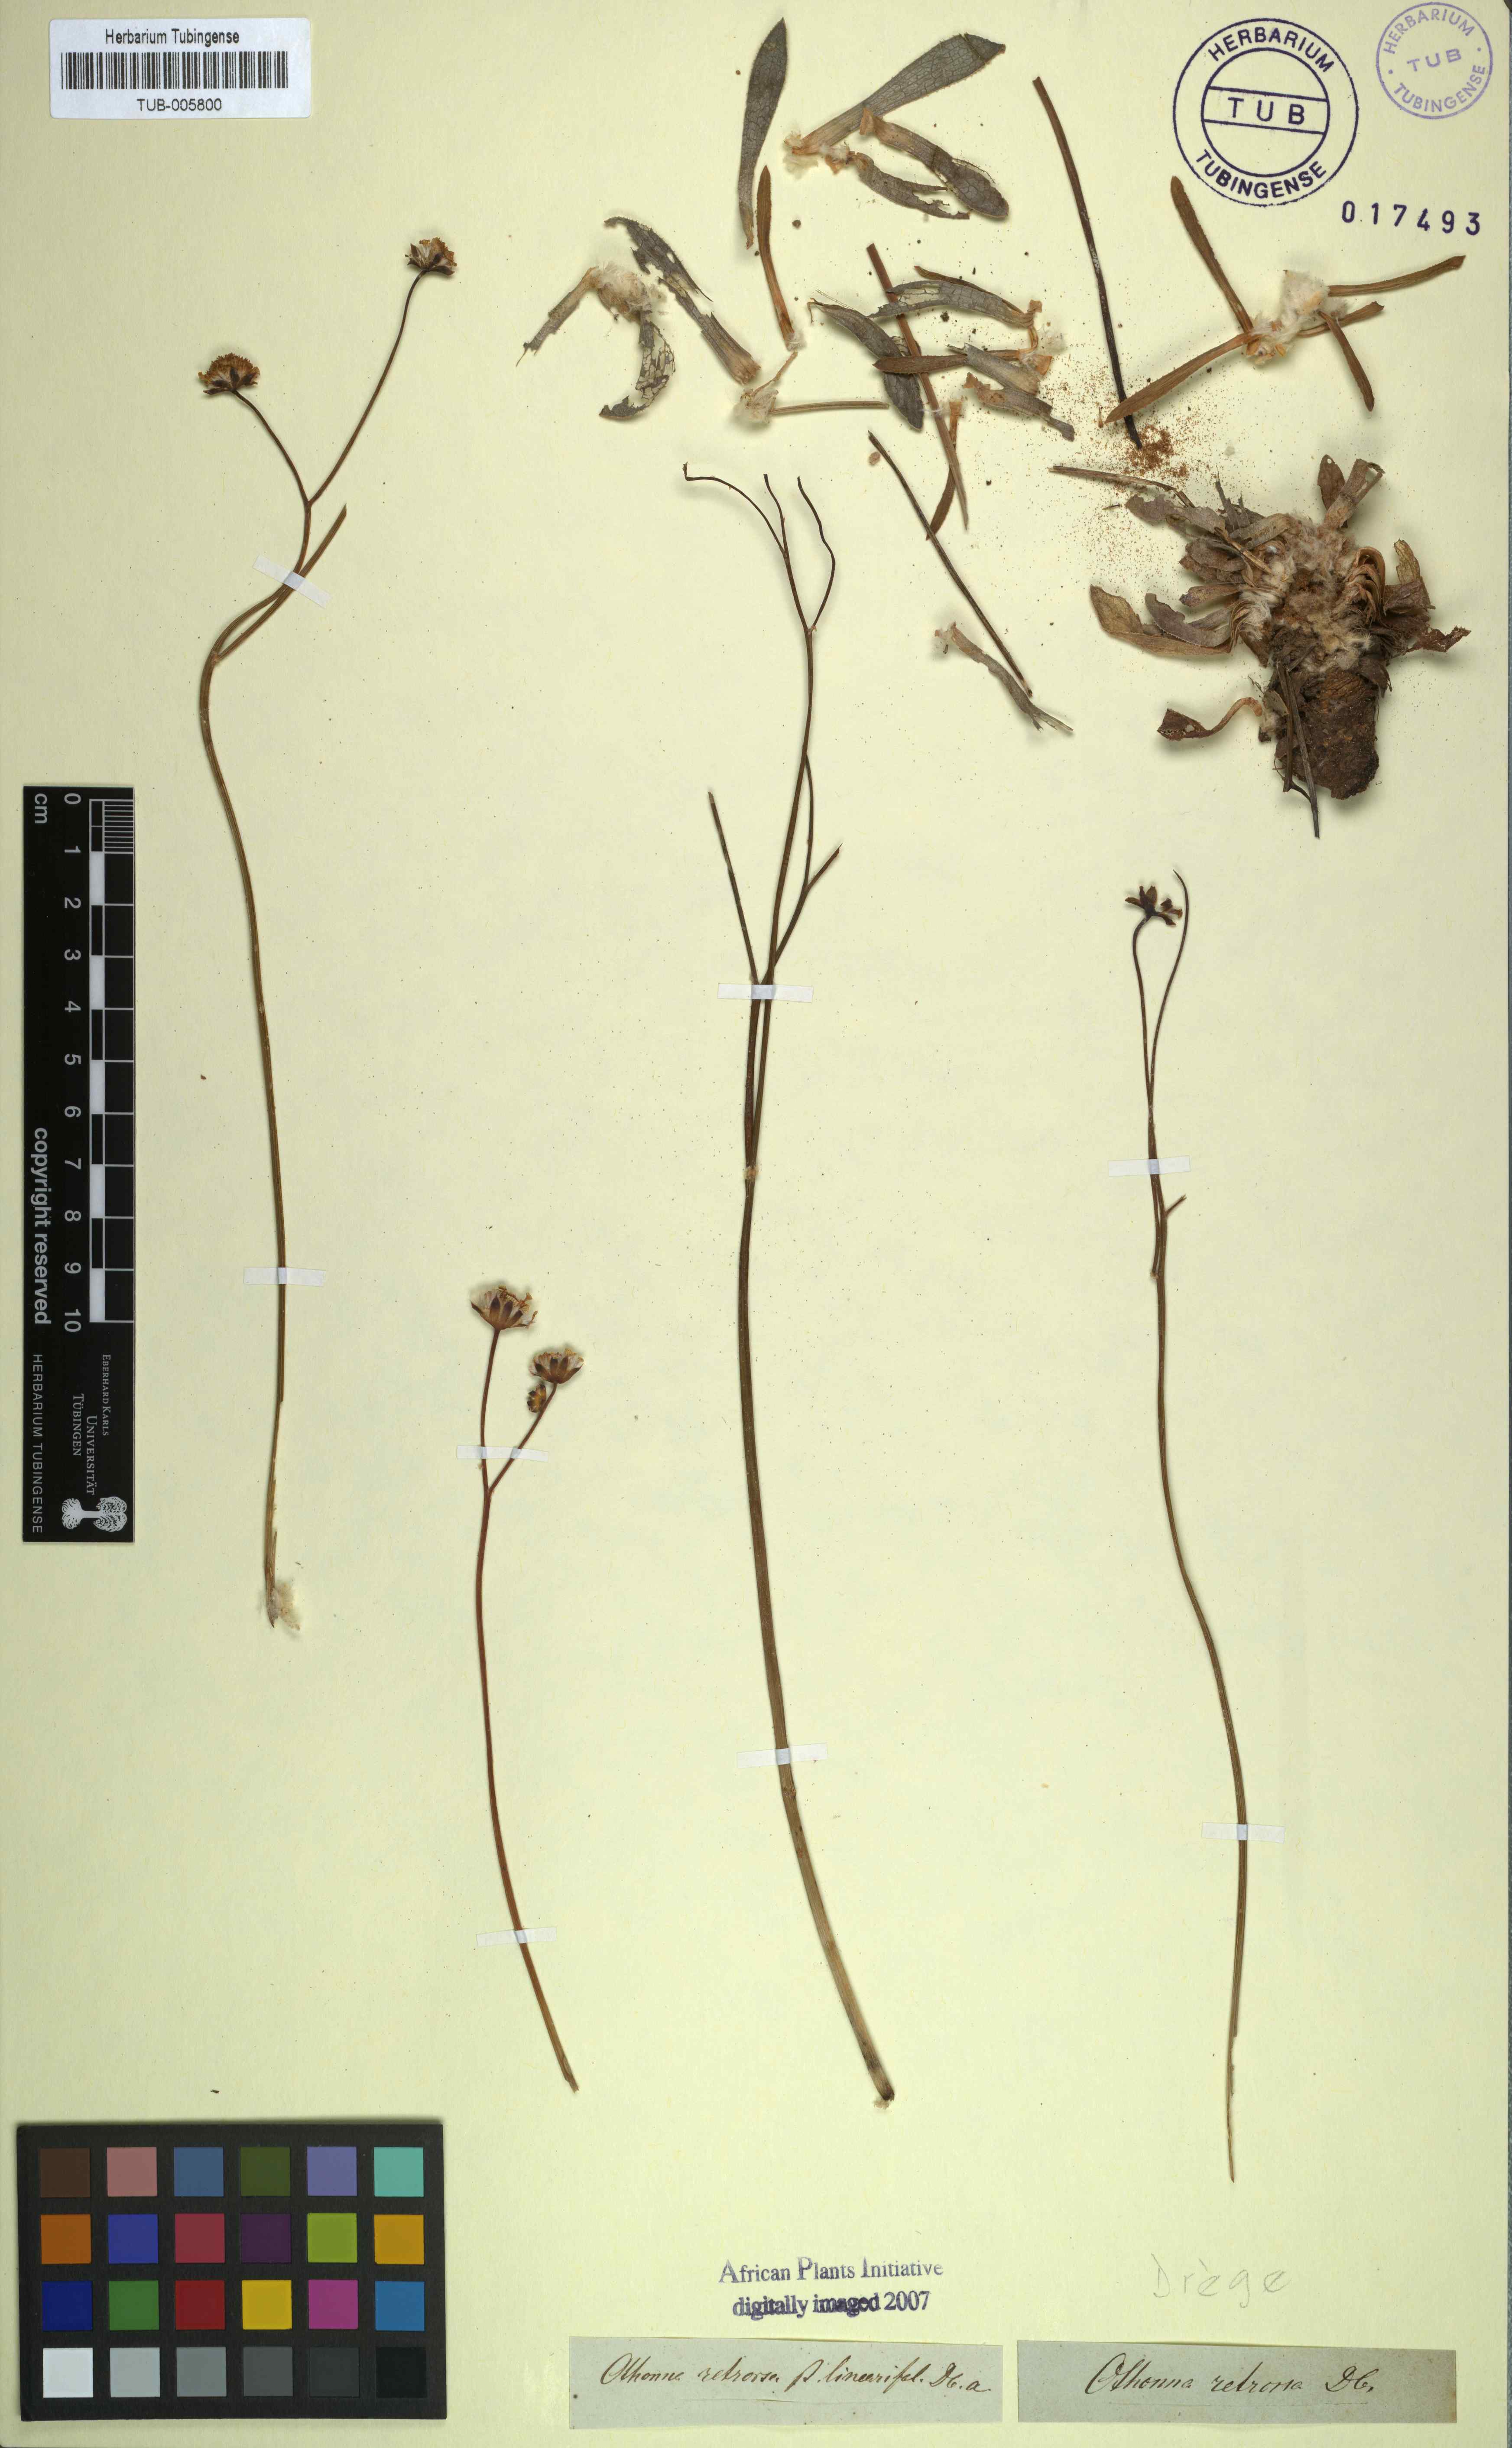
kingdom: Plantae
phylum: Tracheophyta
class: Magnoliopsida
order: Asterales
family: Asteraceae
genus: Othonna
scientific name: Othonna retrorsa
